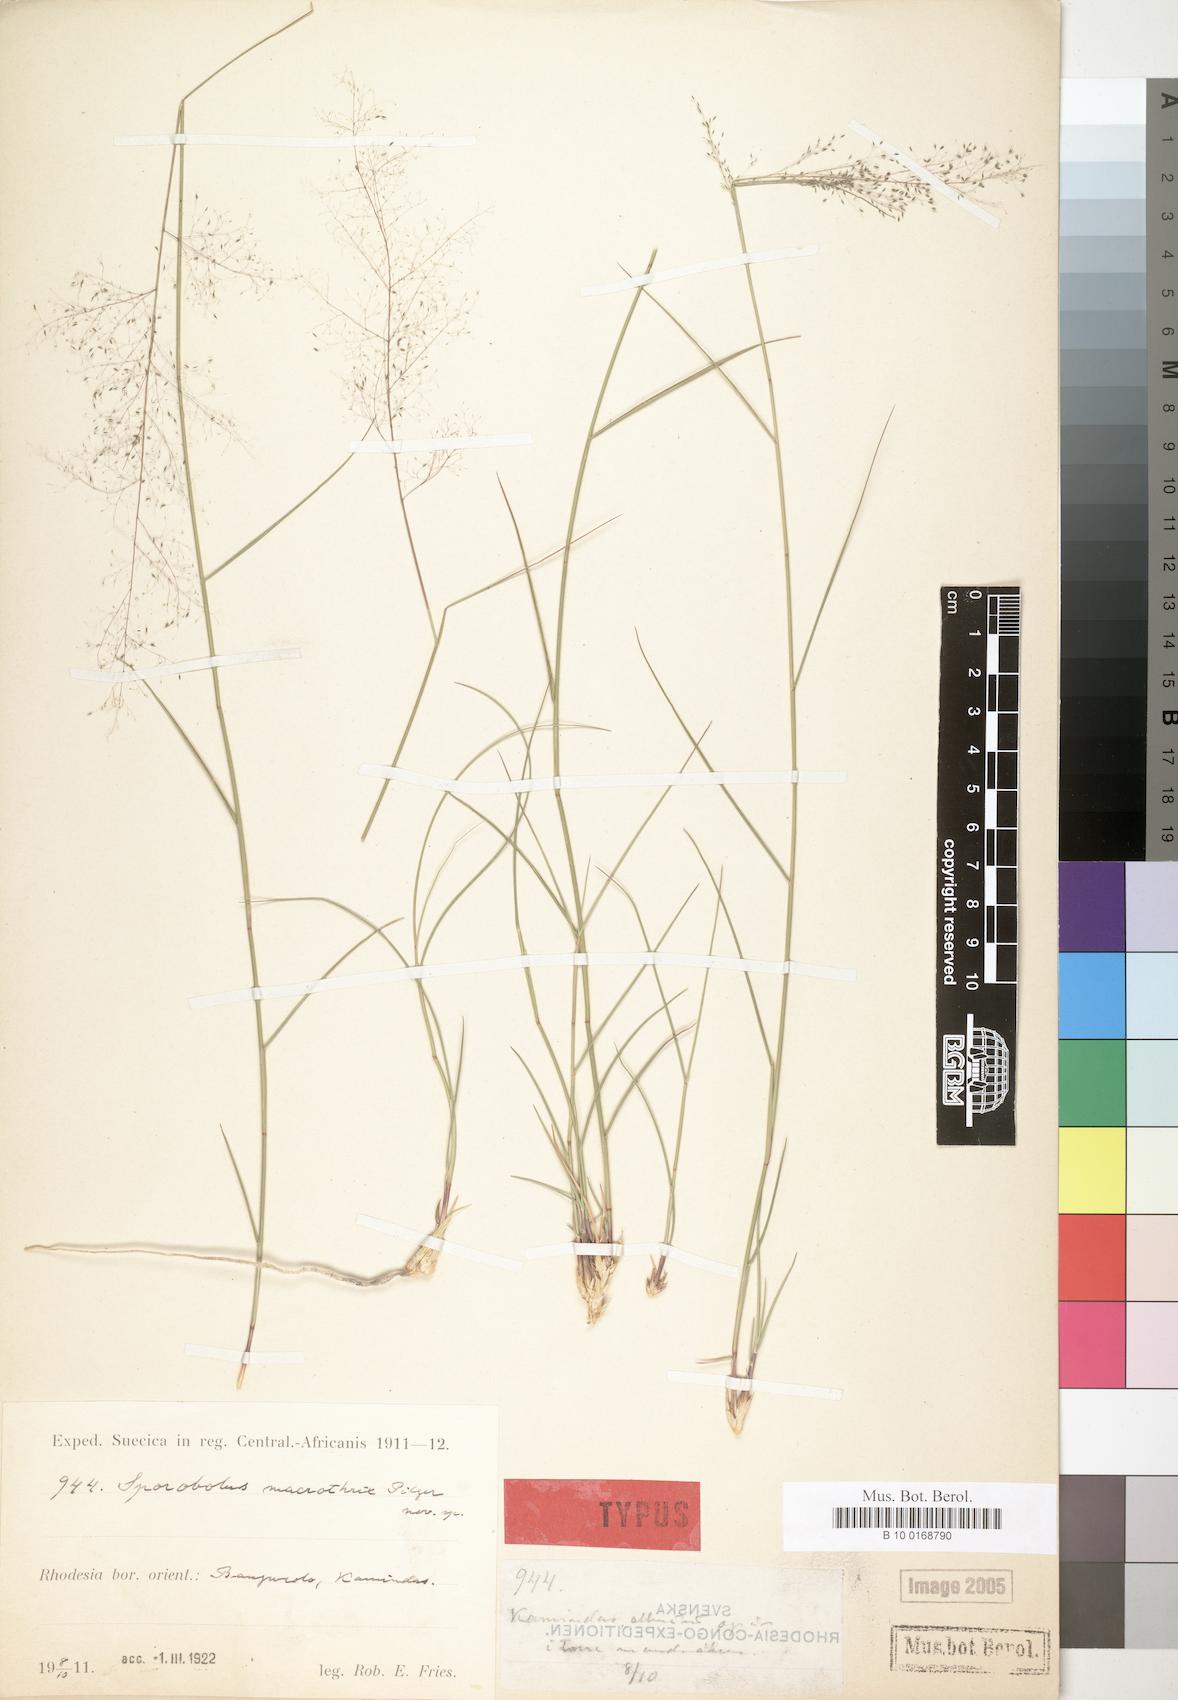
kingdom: Plantae
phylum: Tracheophyta
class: Liliopsida
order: Poales
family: Poaceae
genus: Sporobolus
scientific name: Sporobolus welwitschii
